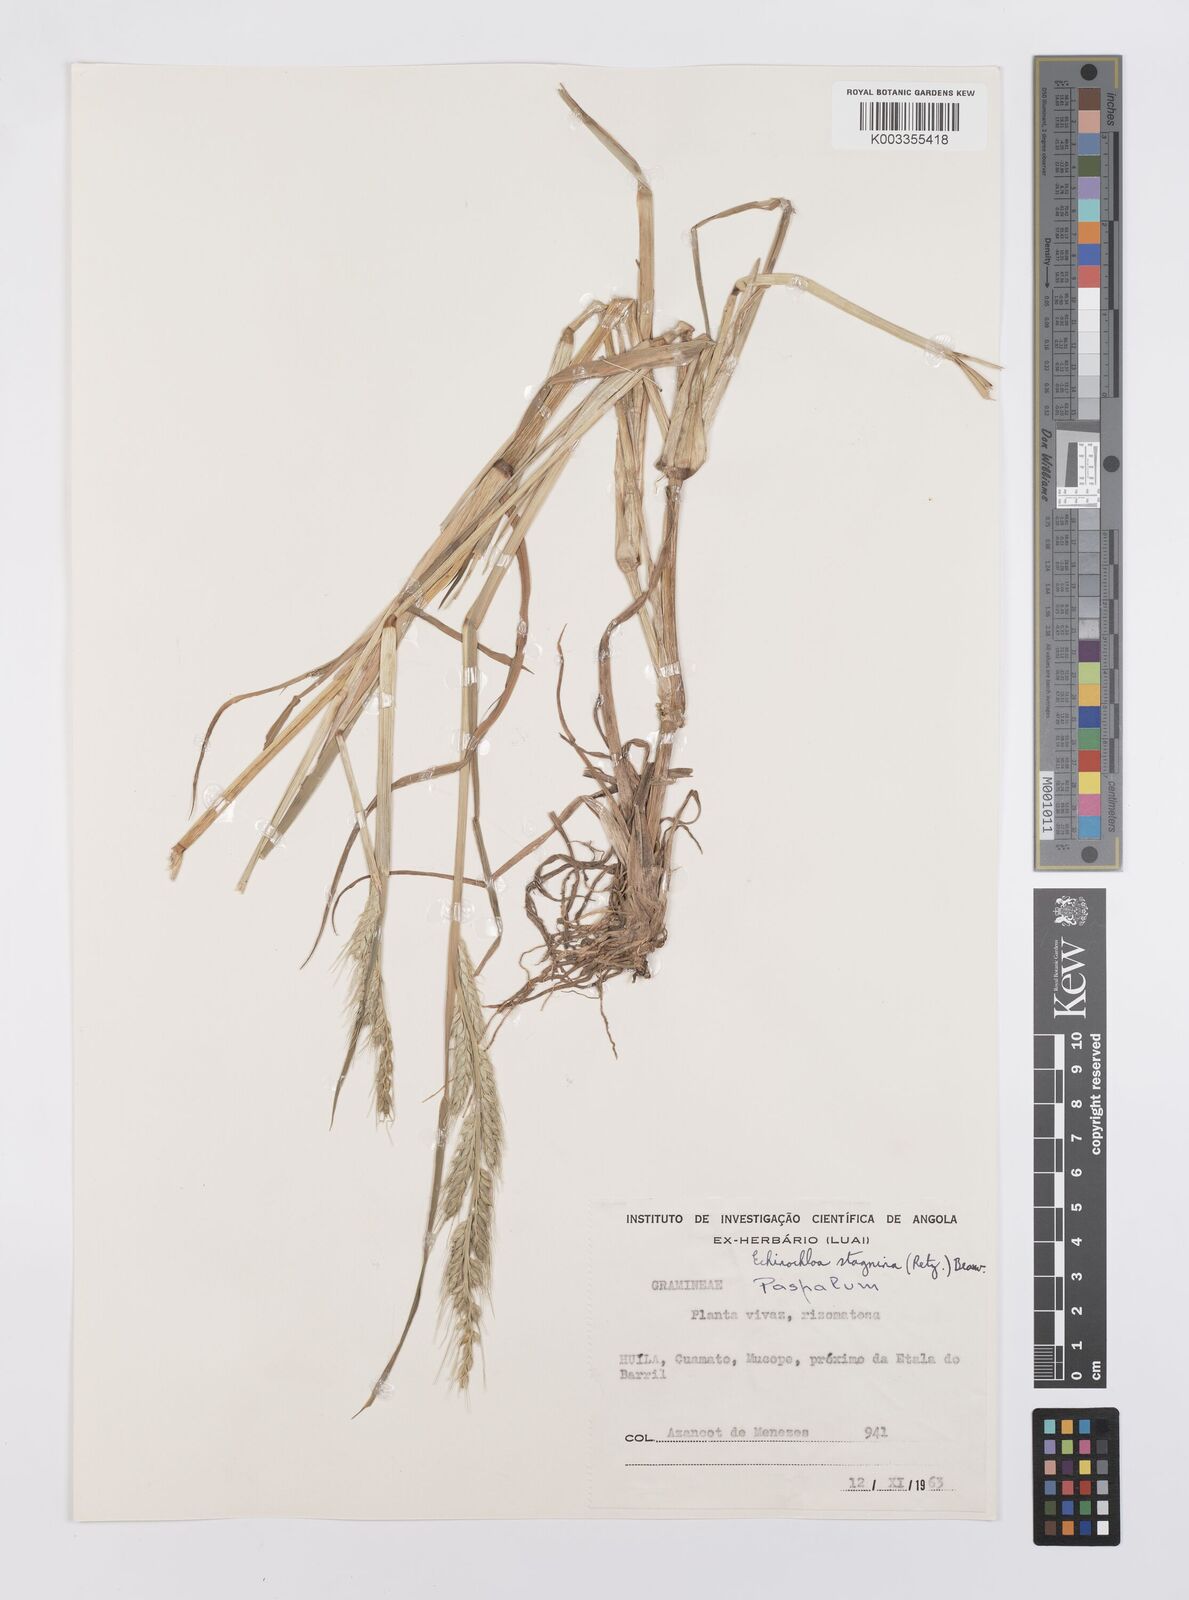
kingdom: Plantae
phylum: Tracheophyta
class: Liliopsida
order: Poales
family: Poaceae
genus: Echinochloa
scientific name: Echinochloa stagnina
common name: Burgu grass
